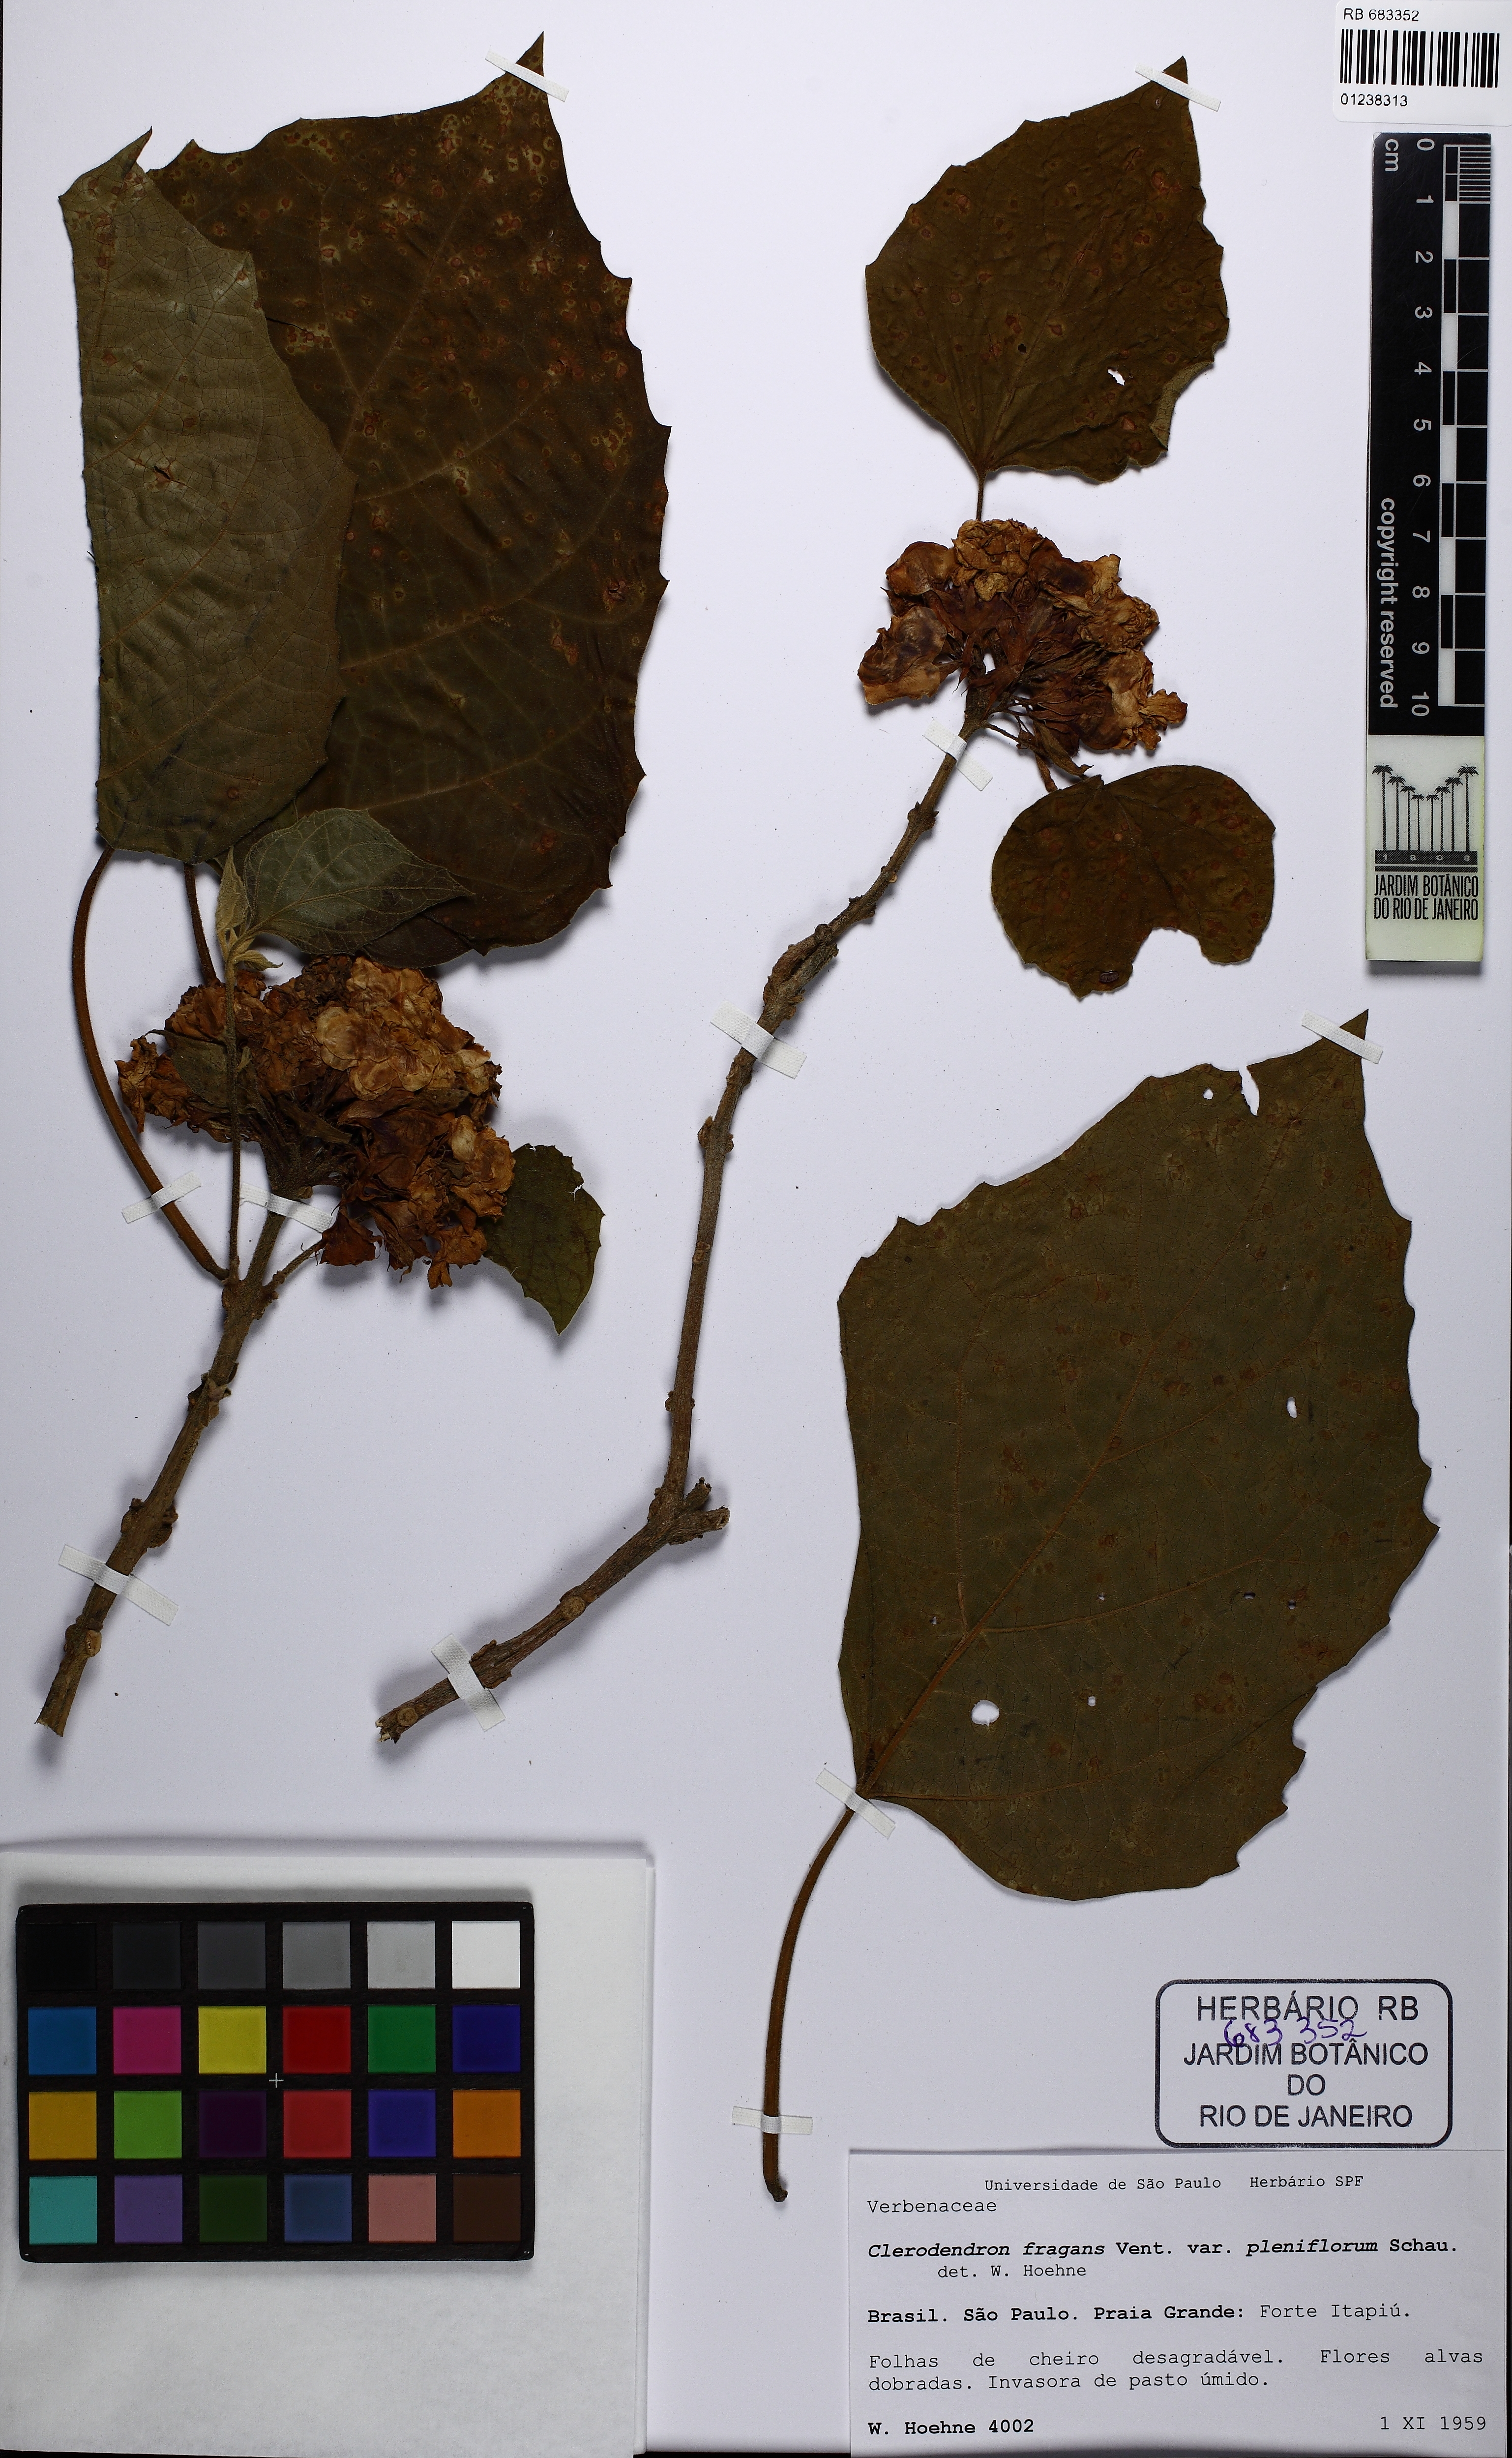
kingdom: Plantae
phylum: Tracheophyta
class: Magnoliopsida
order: Lamiales
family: Lamiaceae
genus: Clerodendrum
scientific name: Clerodendrum
